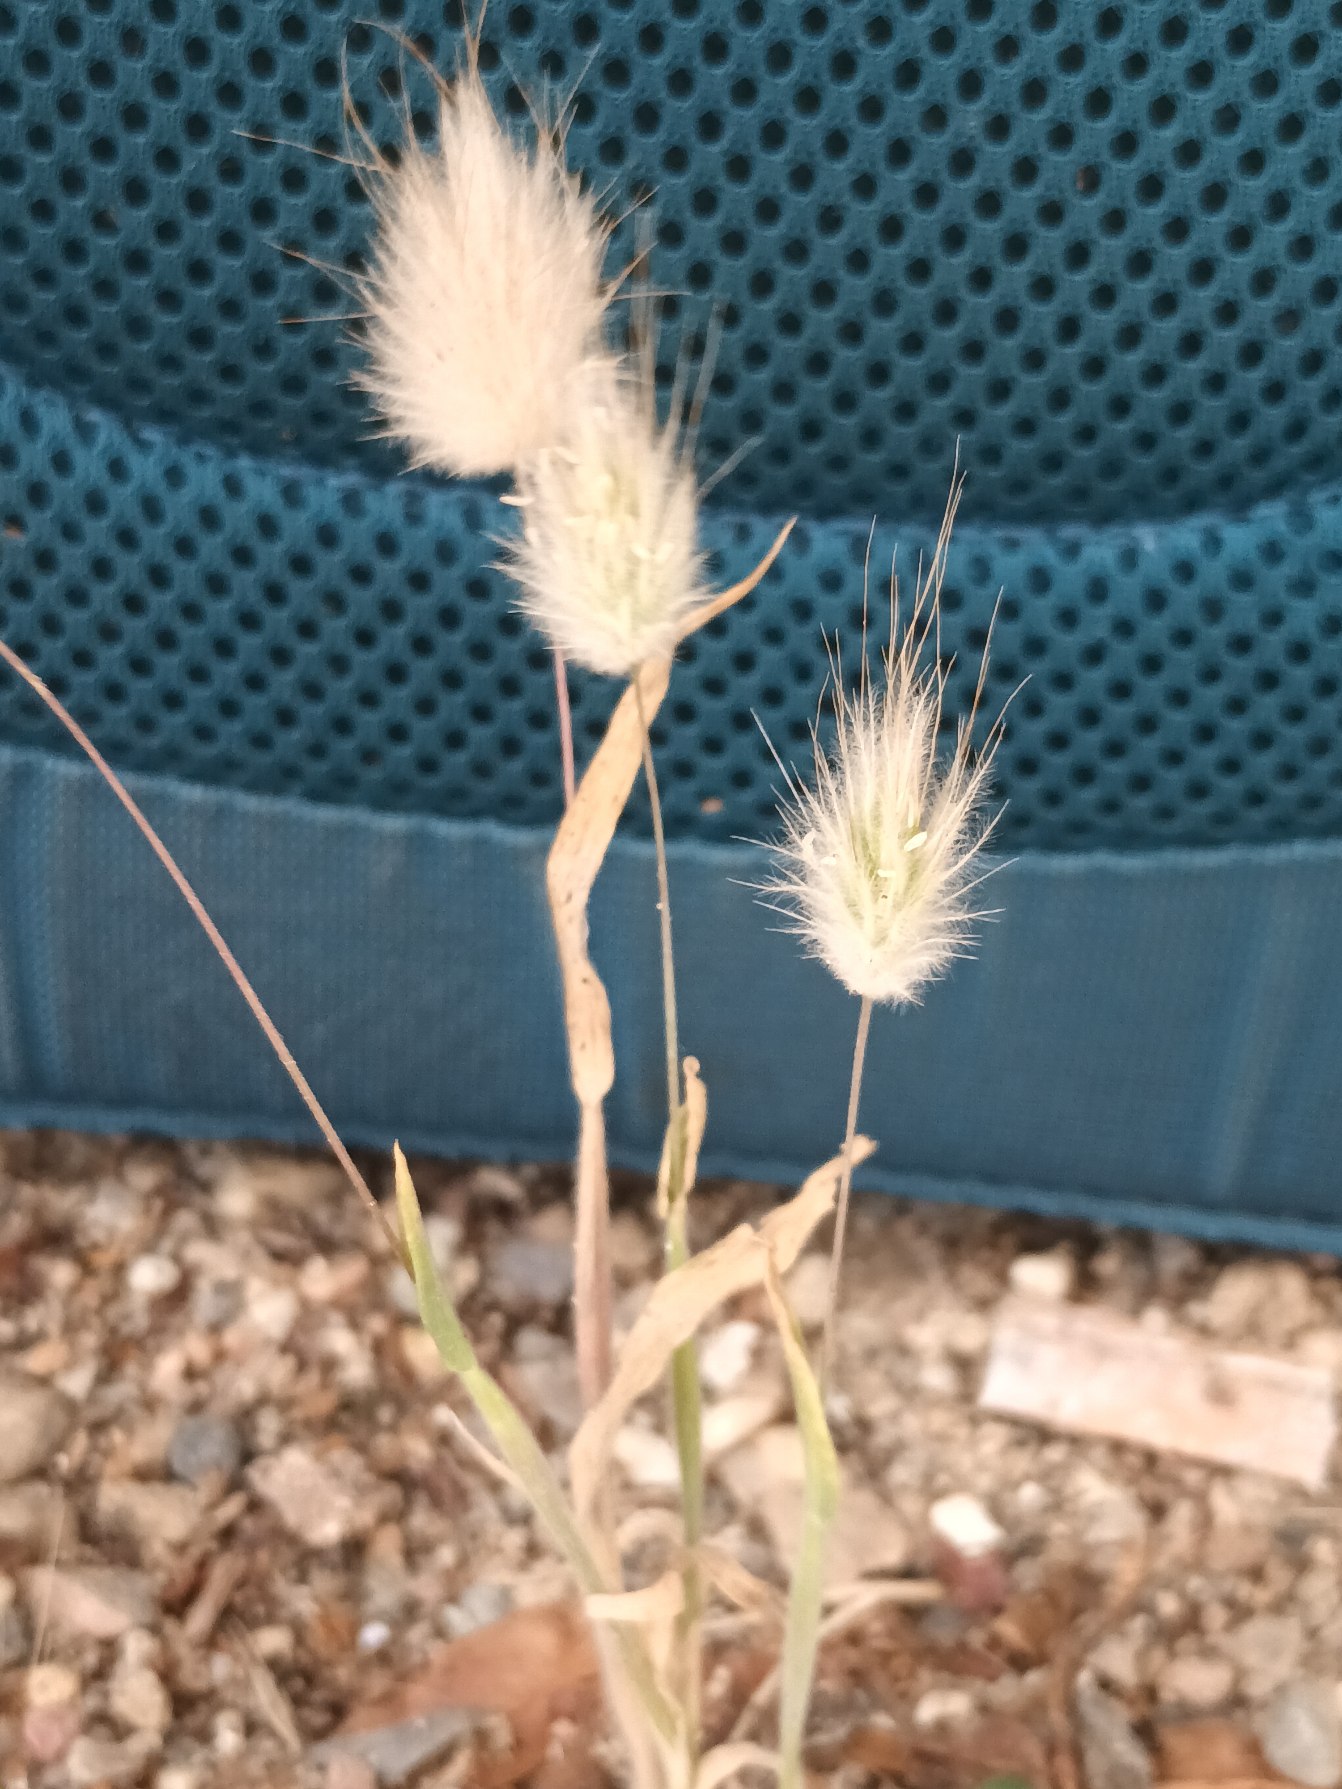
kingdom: Plantae
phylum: Tracheophyta
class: Liliopsida
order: Poales
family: Poaceae
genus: Lagurus
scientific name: Lagurus ovatus
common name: Harehale
